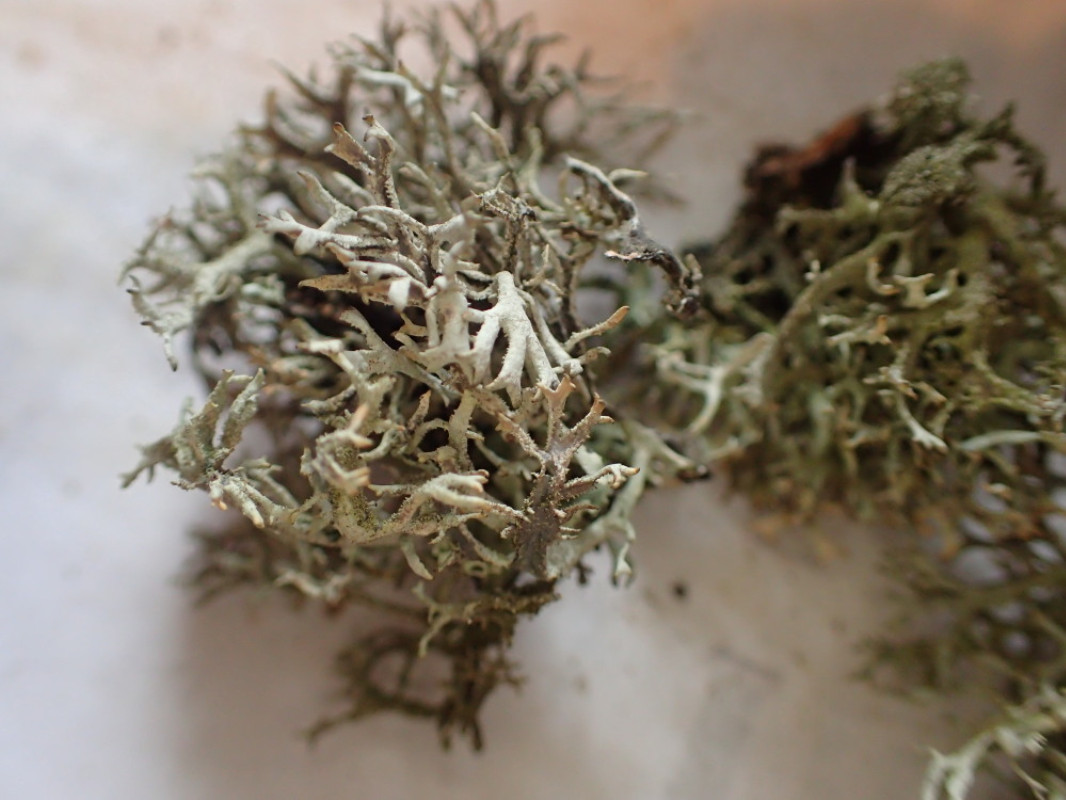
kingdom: Fungi
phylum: Ascomycota
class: Lecanoromycetes
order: Lecanorales
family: Parmeliaceae
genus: Pseudevernia
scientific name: Pseudevernia furfuracea
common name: grå fyrrelav
